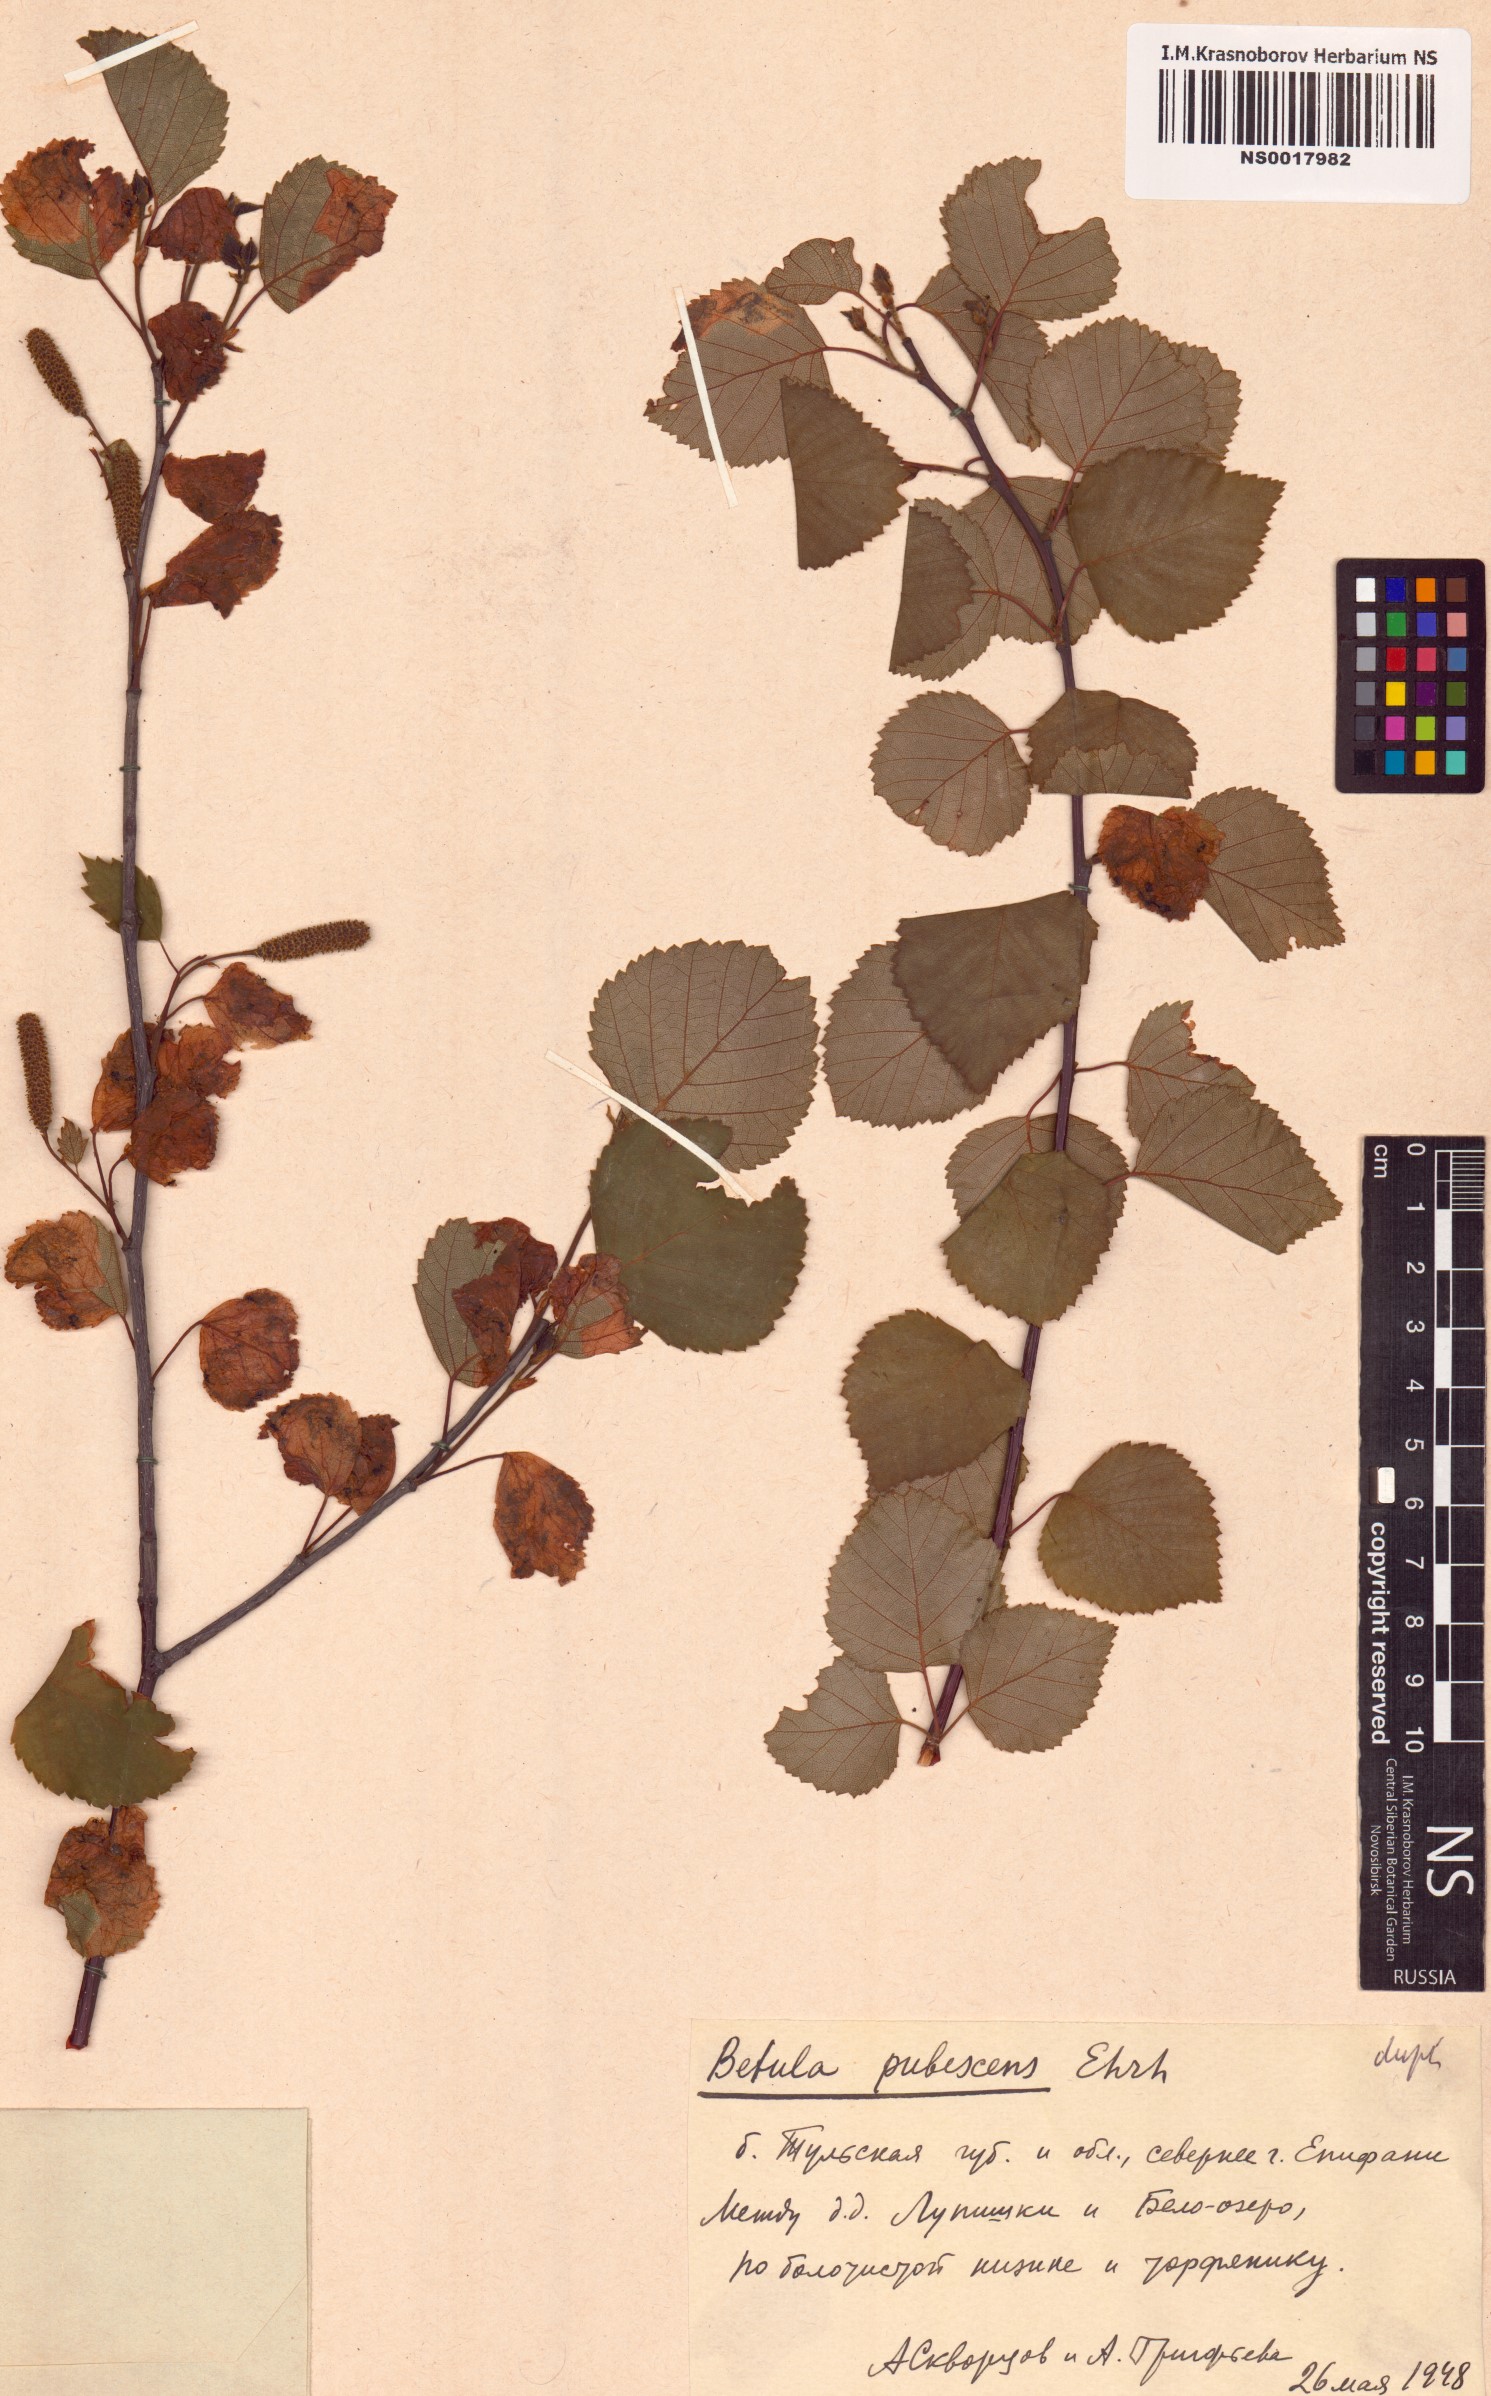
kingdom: Plantae
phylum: Tracheophyta
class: Magnoliopsida
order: Fagales
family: Betulaceae
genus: Betula
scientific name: Betula pubescens
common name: Downy birch
